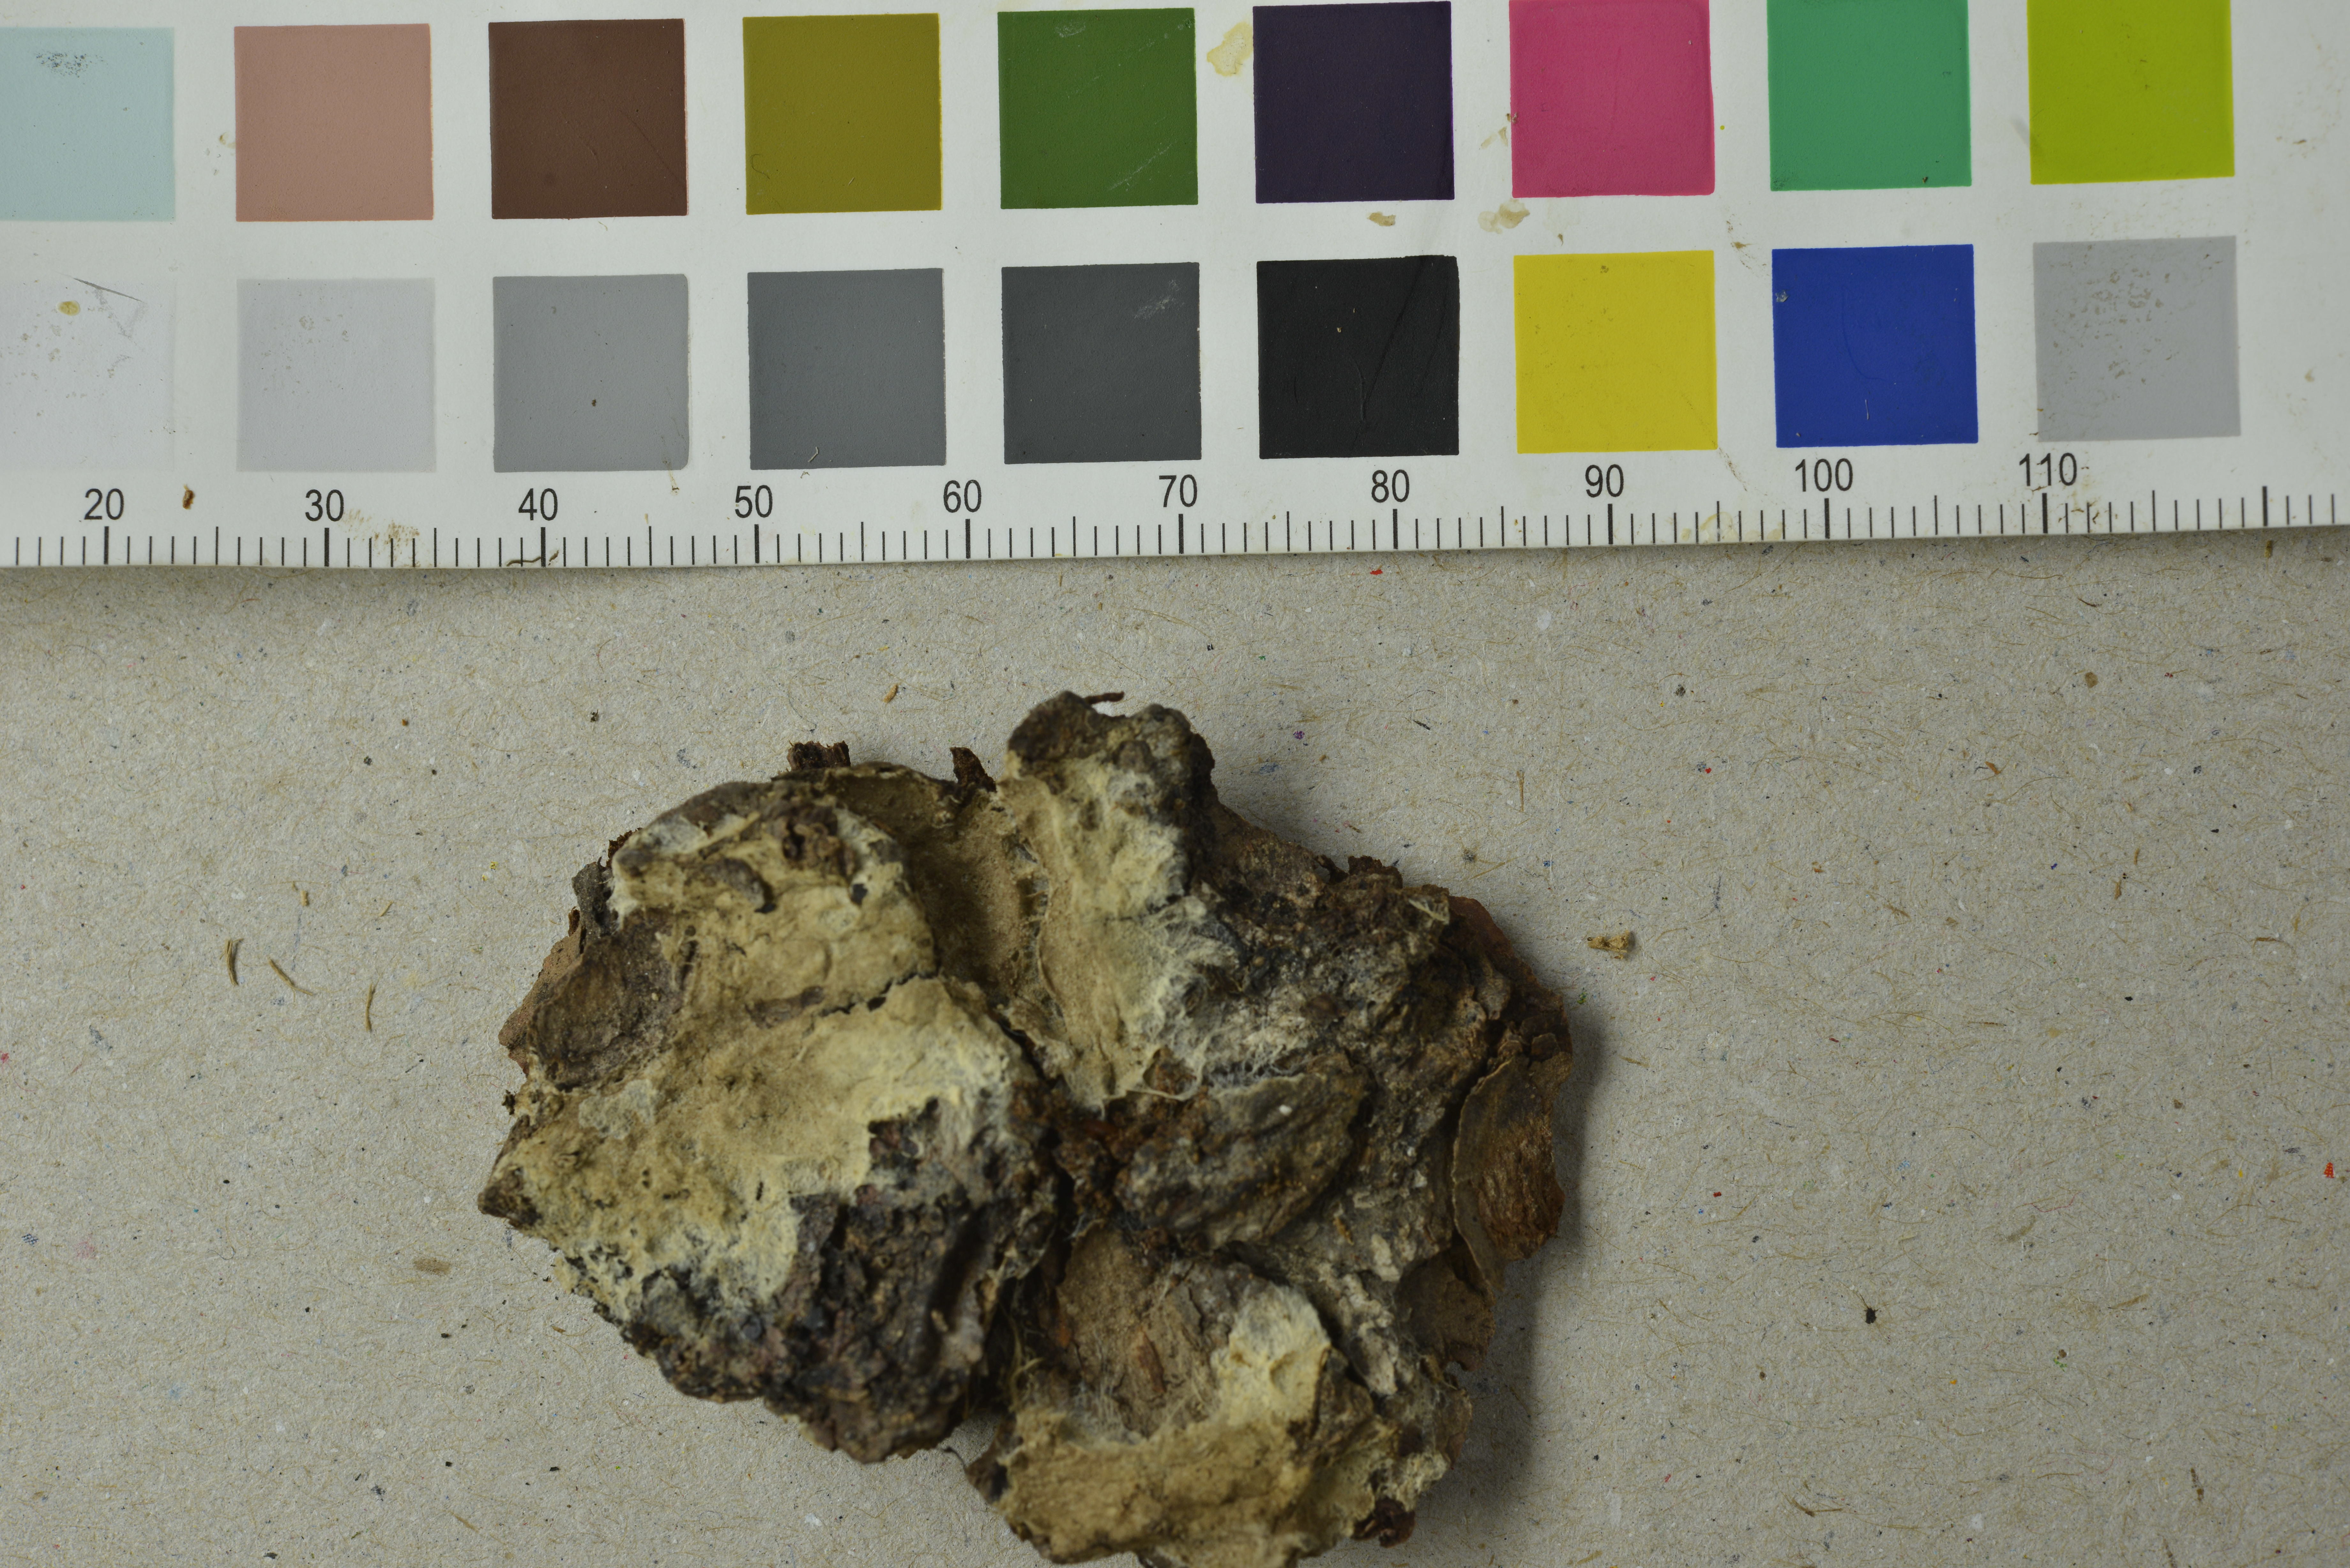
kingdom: Fungi
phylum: Basidiomycota
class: Agaricomycetes
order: Boletales
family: Coniophoraceae
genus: Coniophora
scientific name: Coniophora arida
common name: Dry duster
